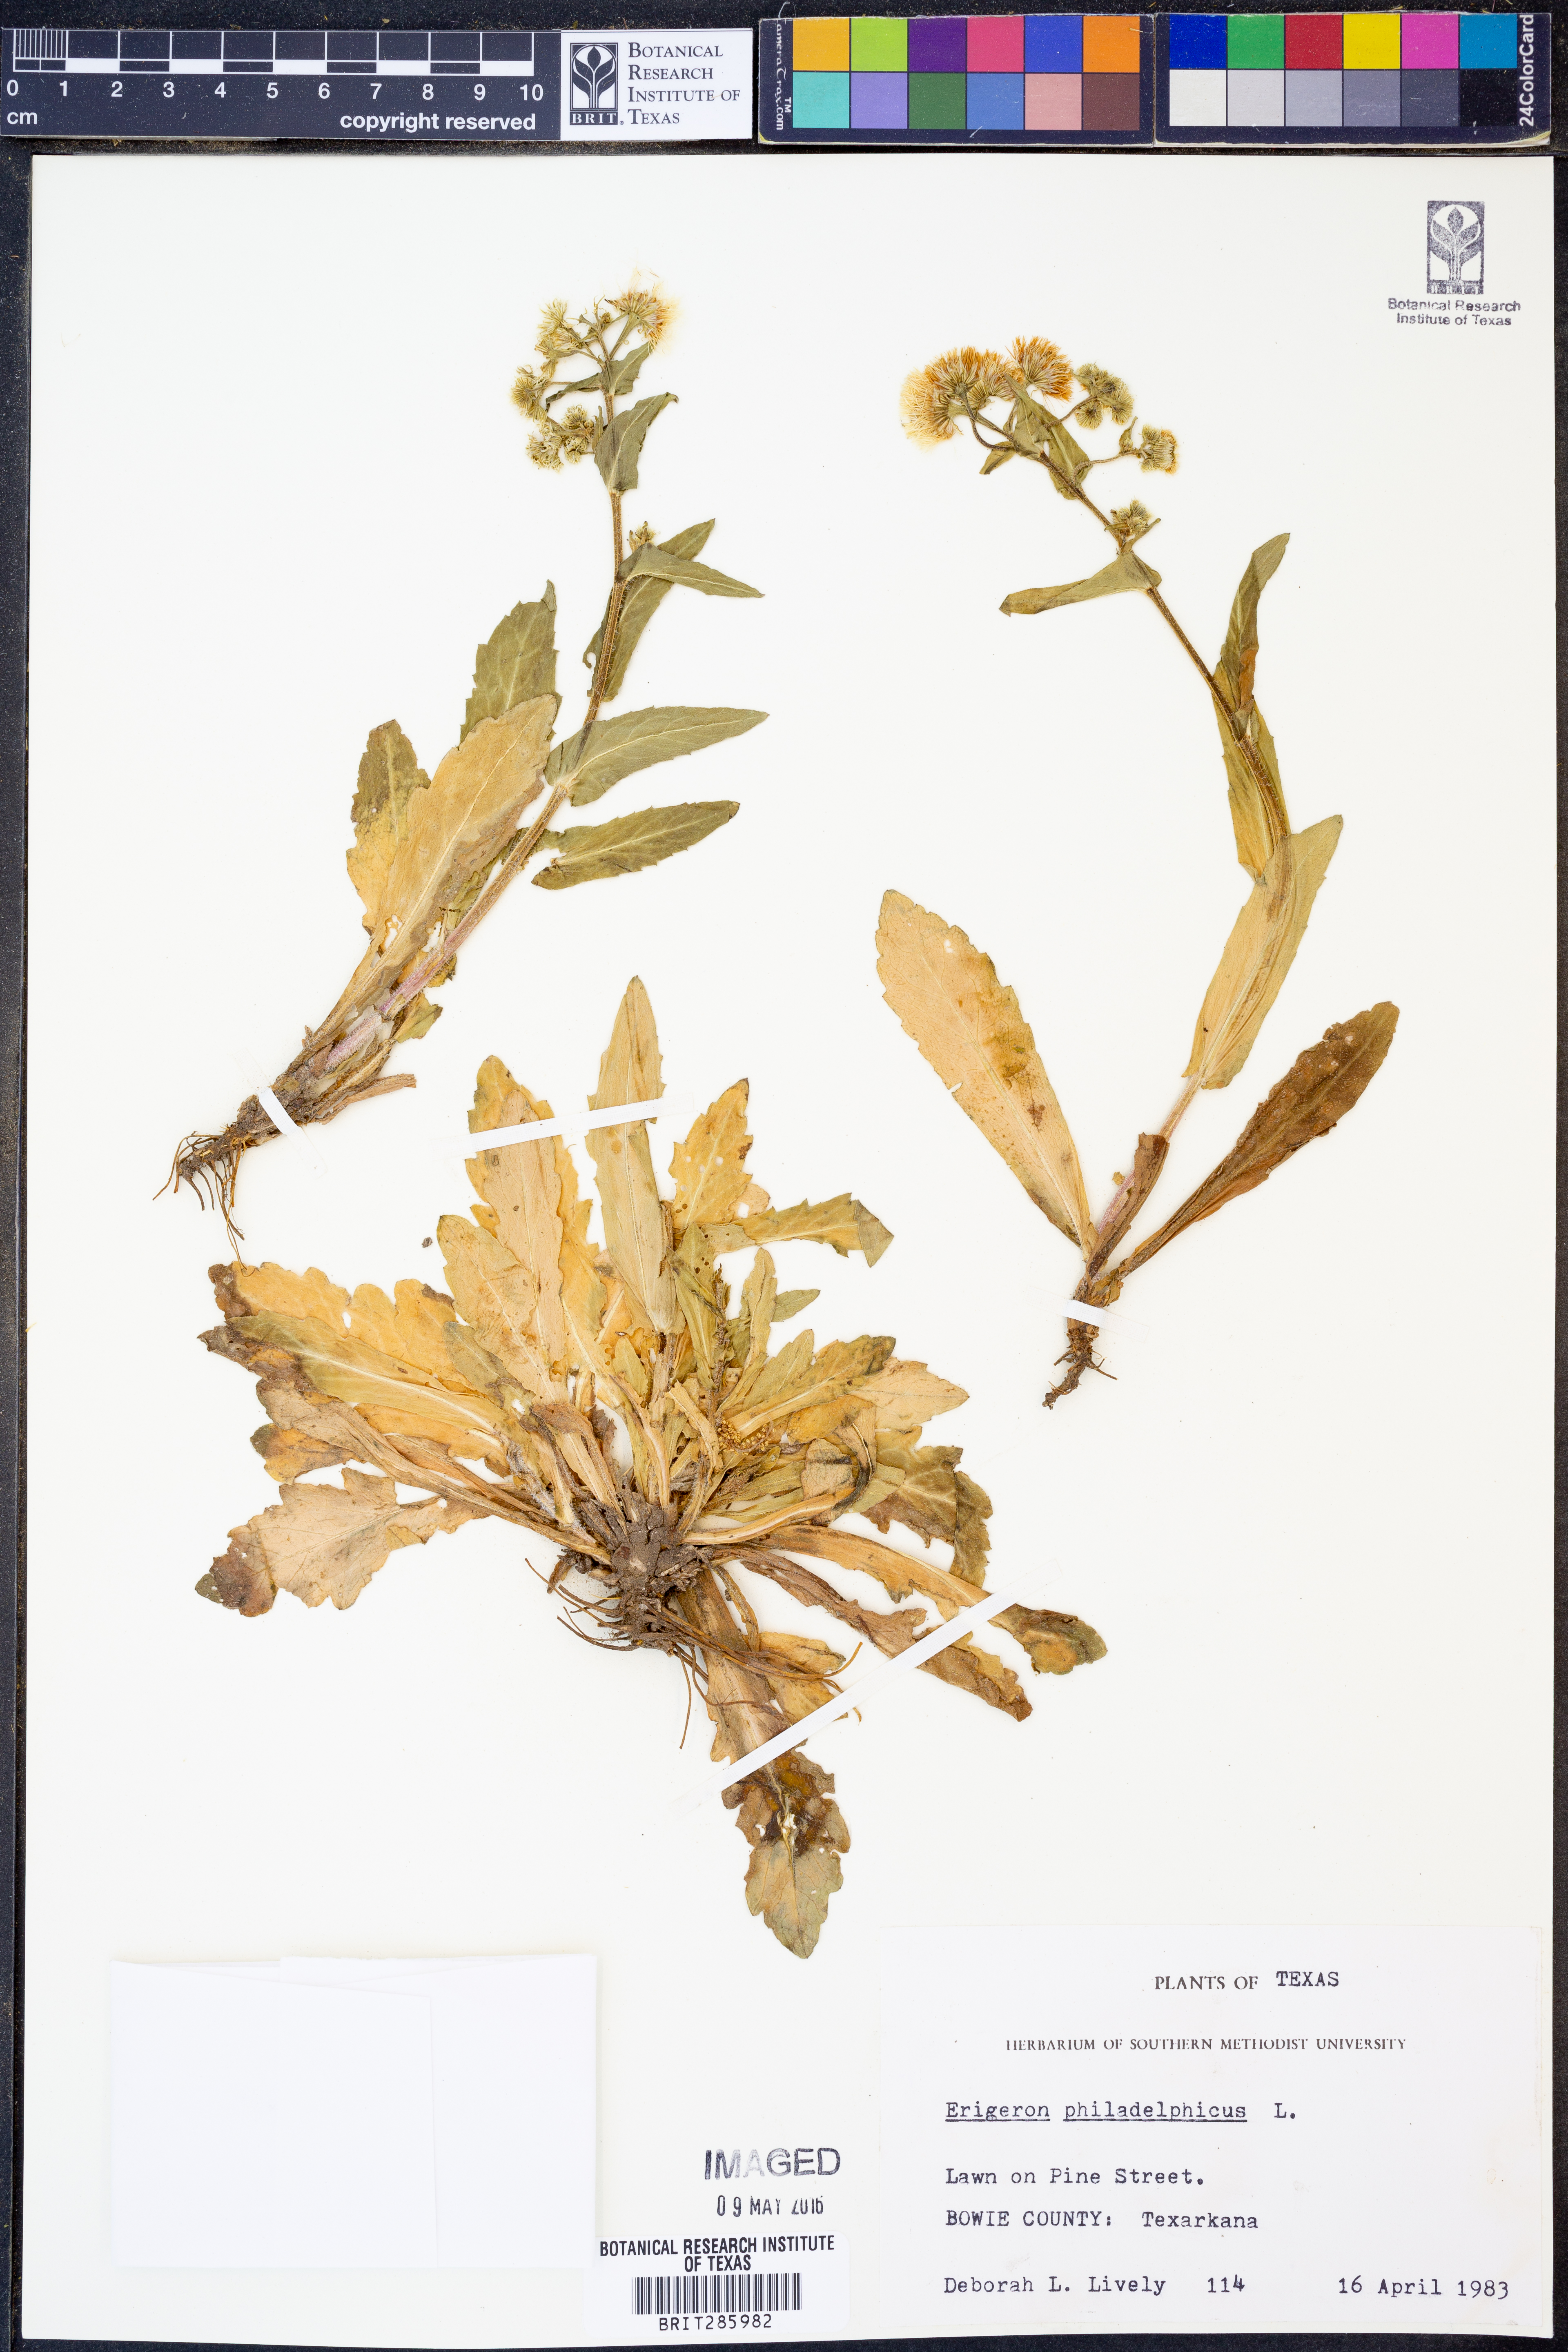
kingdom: Plantae
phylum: Tracheophyta
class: Magnoliopsida
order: Asterales
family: Asteraceae
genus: Erigeron
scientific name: Erigeron philadelphicus
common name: Robin's-plantain
